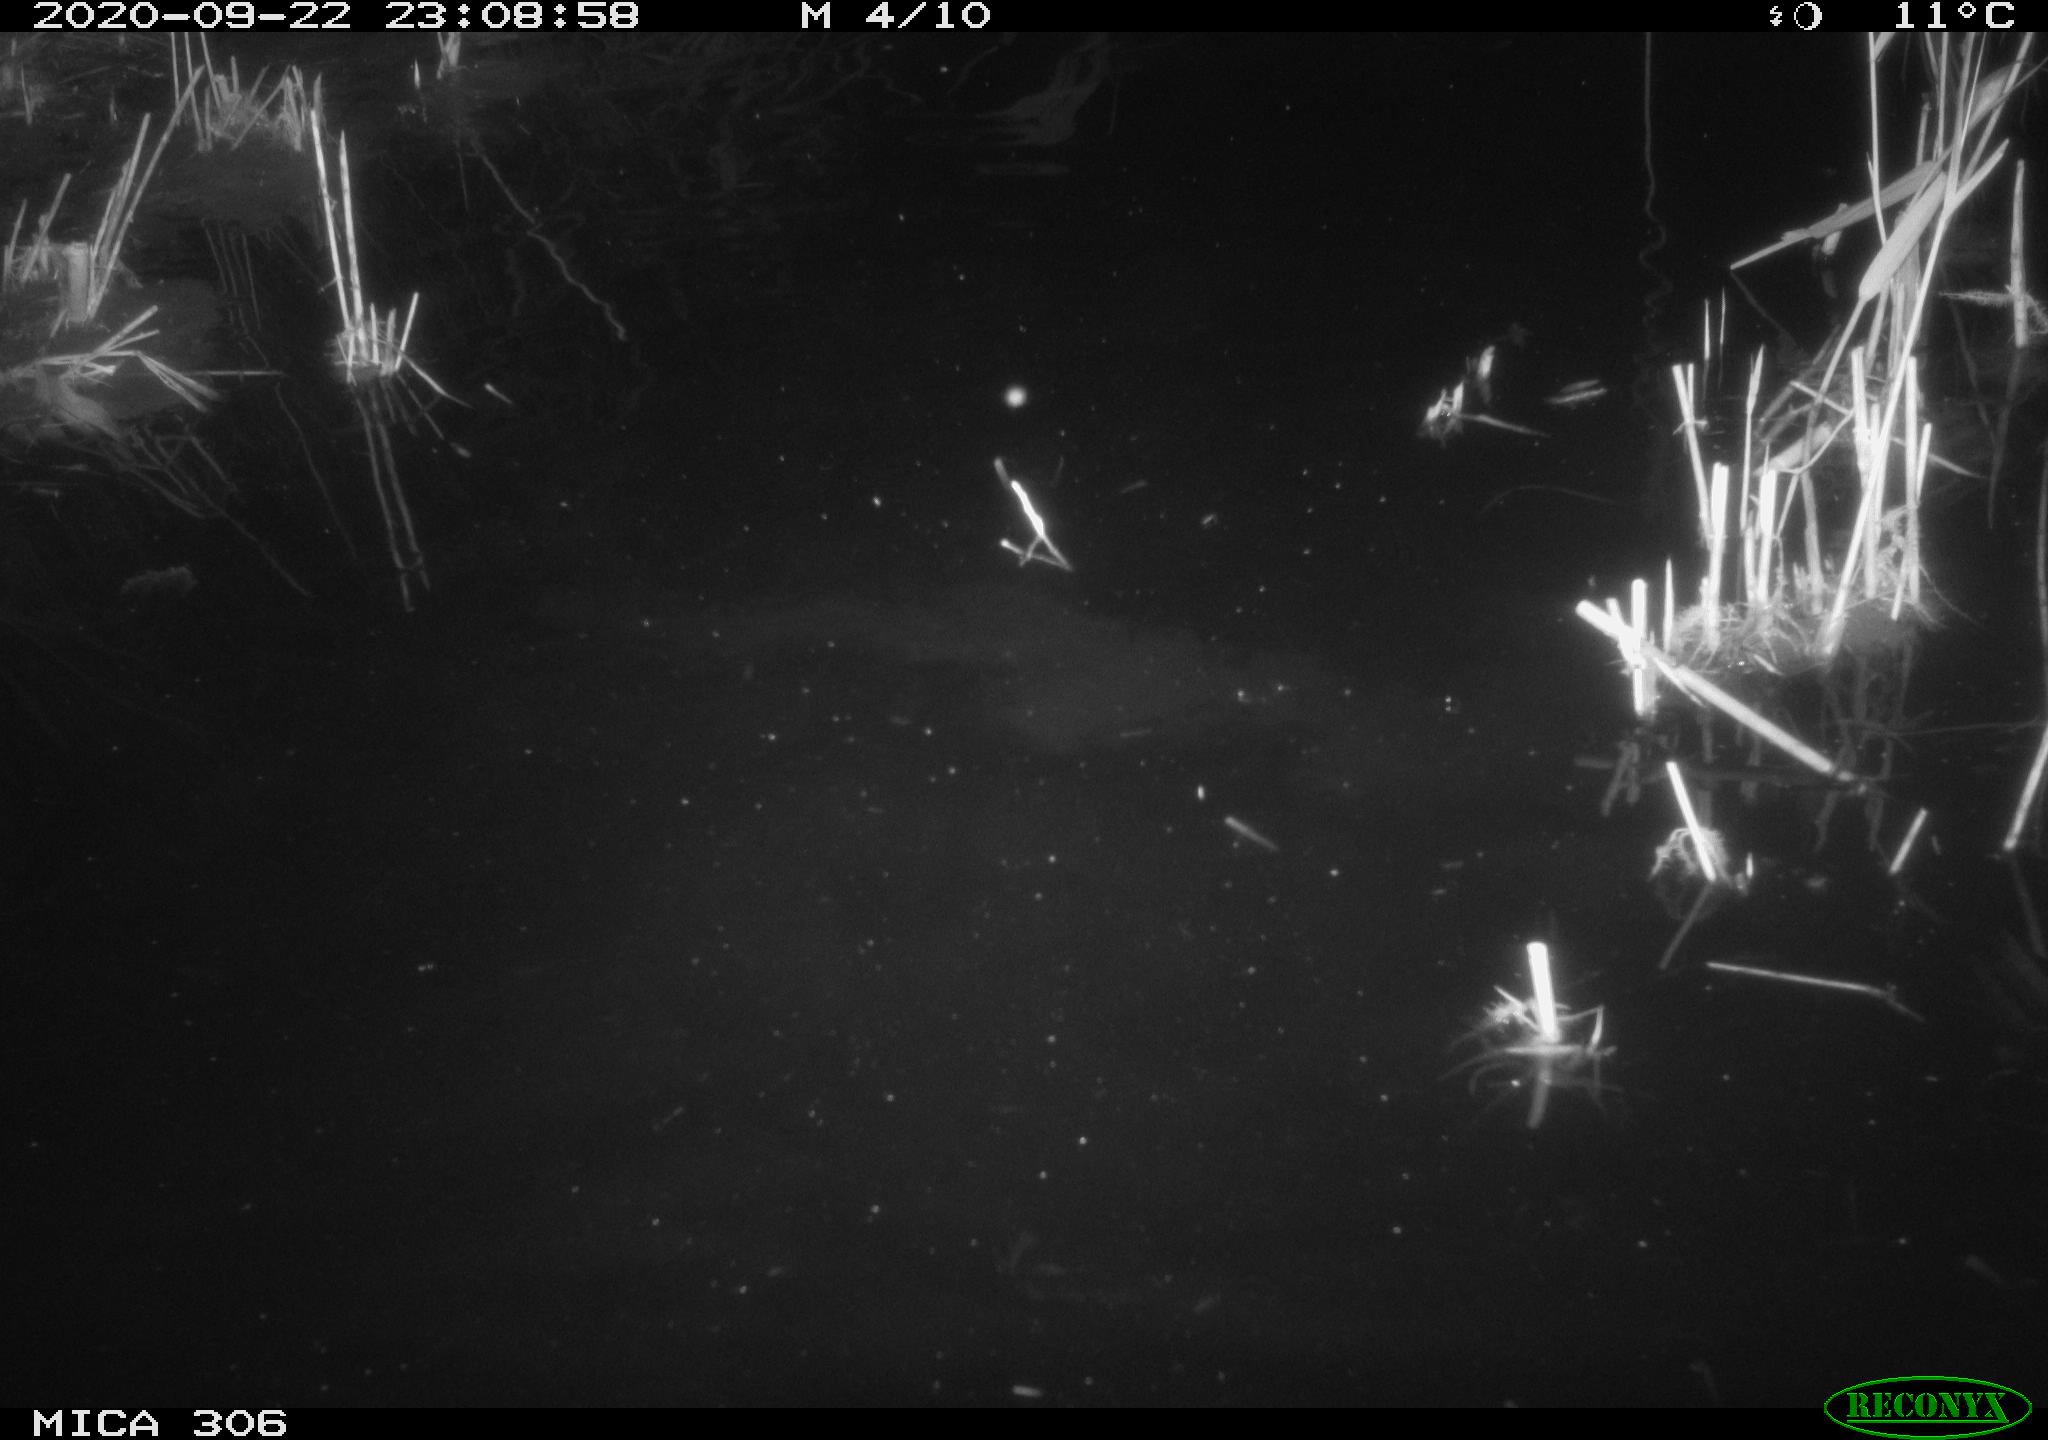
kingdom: Animalia
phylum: Chordata
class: Mammalia
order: Rodentia
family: Muridae
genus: Rattus
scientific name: Rattus norvegicus
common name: Brown rat
